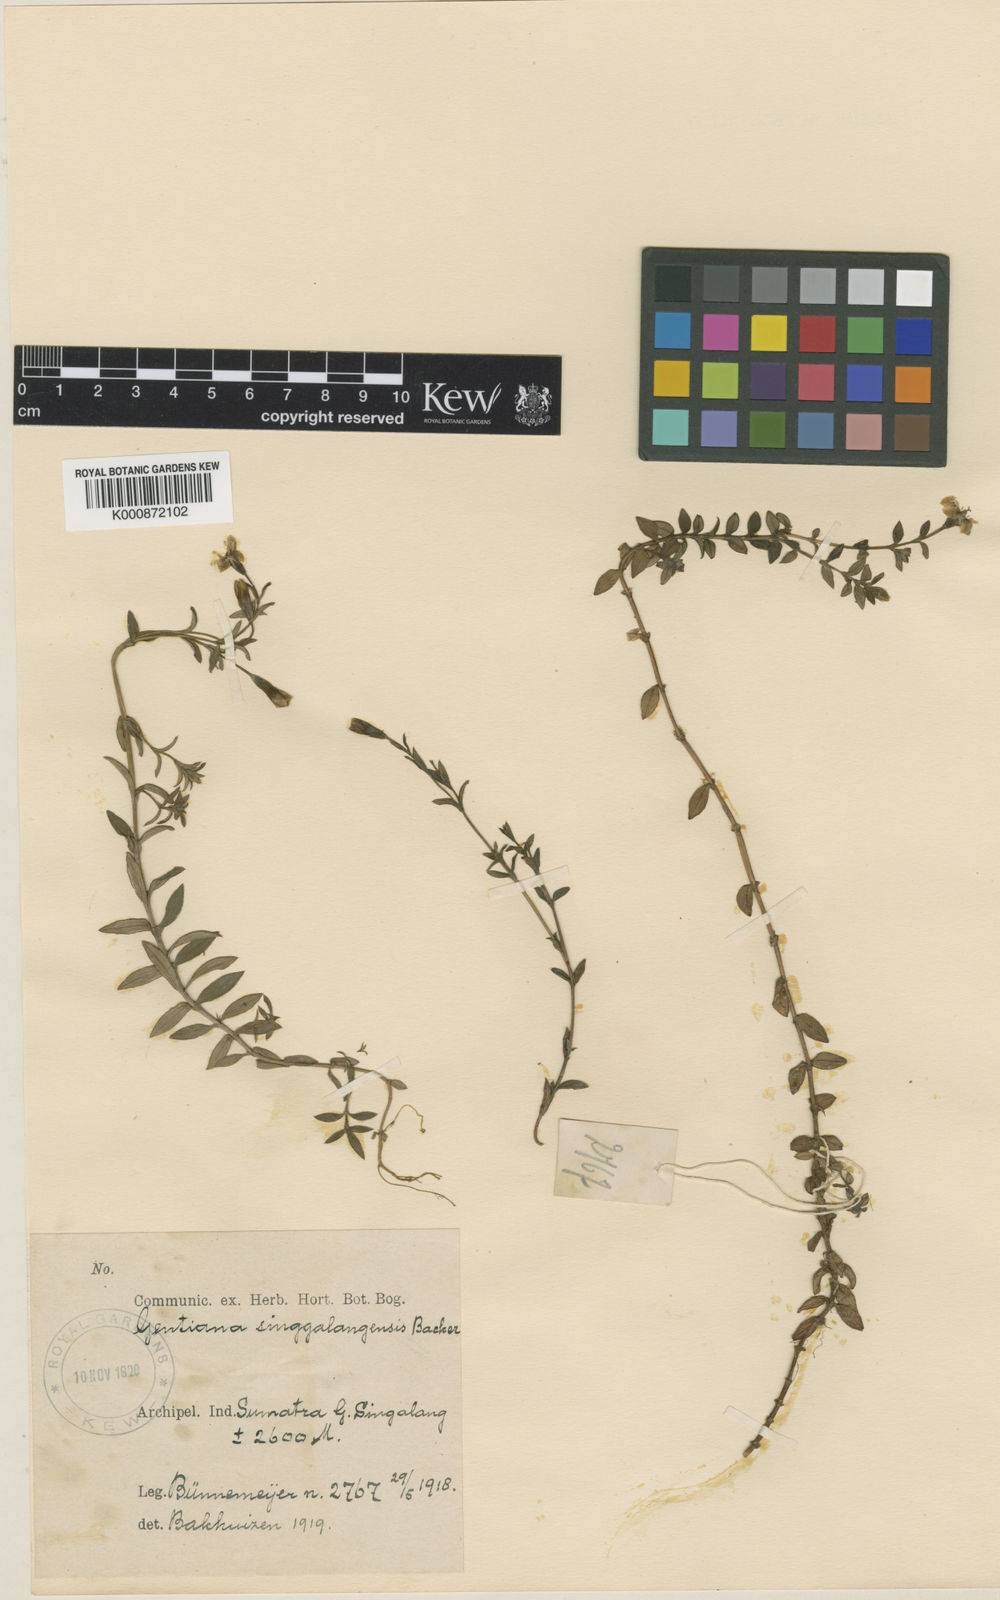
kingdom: Plantae
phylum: Tracheophyta
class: Magnoliopsida
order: Gentianales
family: Gentianaceae
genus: Gentiana
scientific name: Gentiana sumatrana
